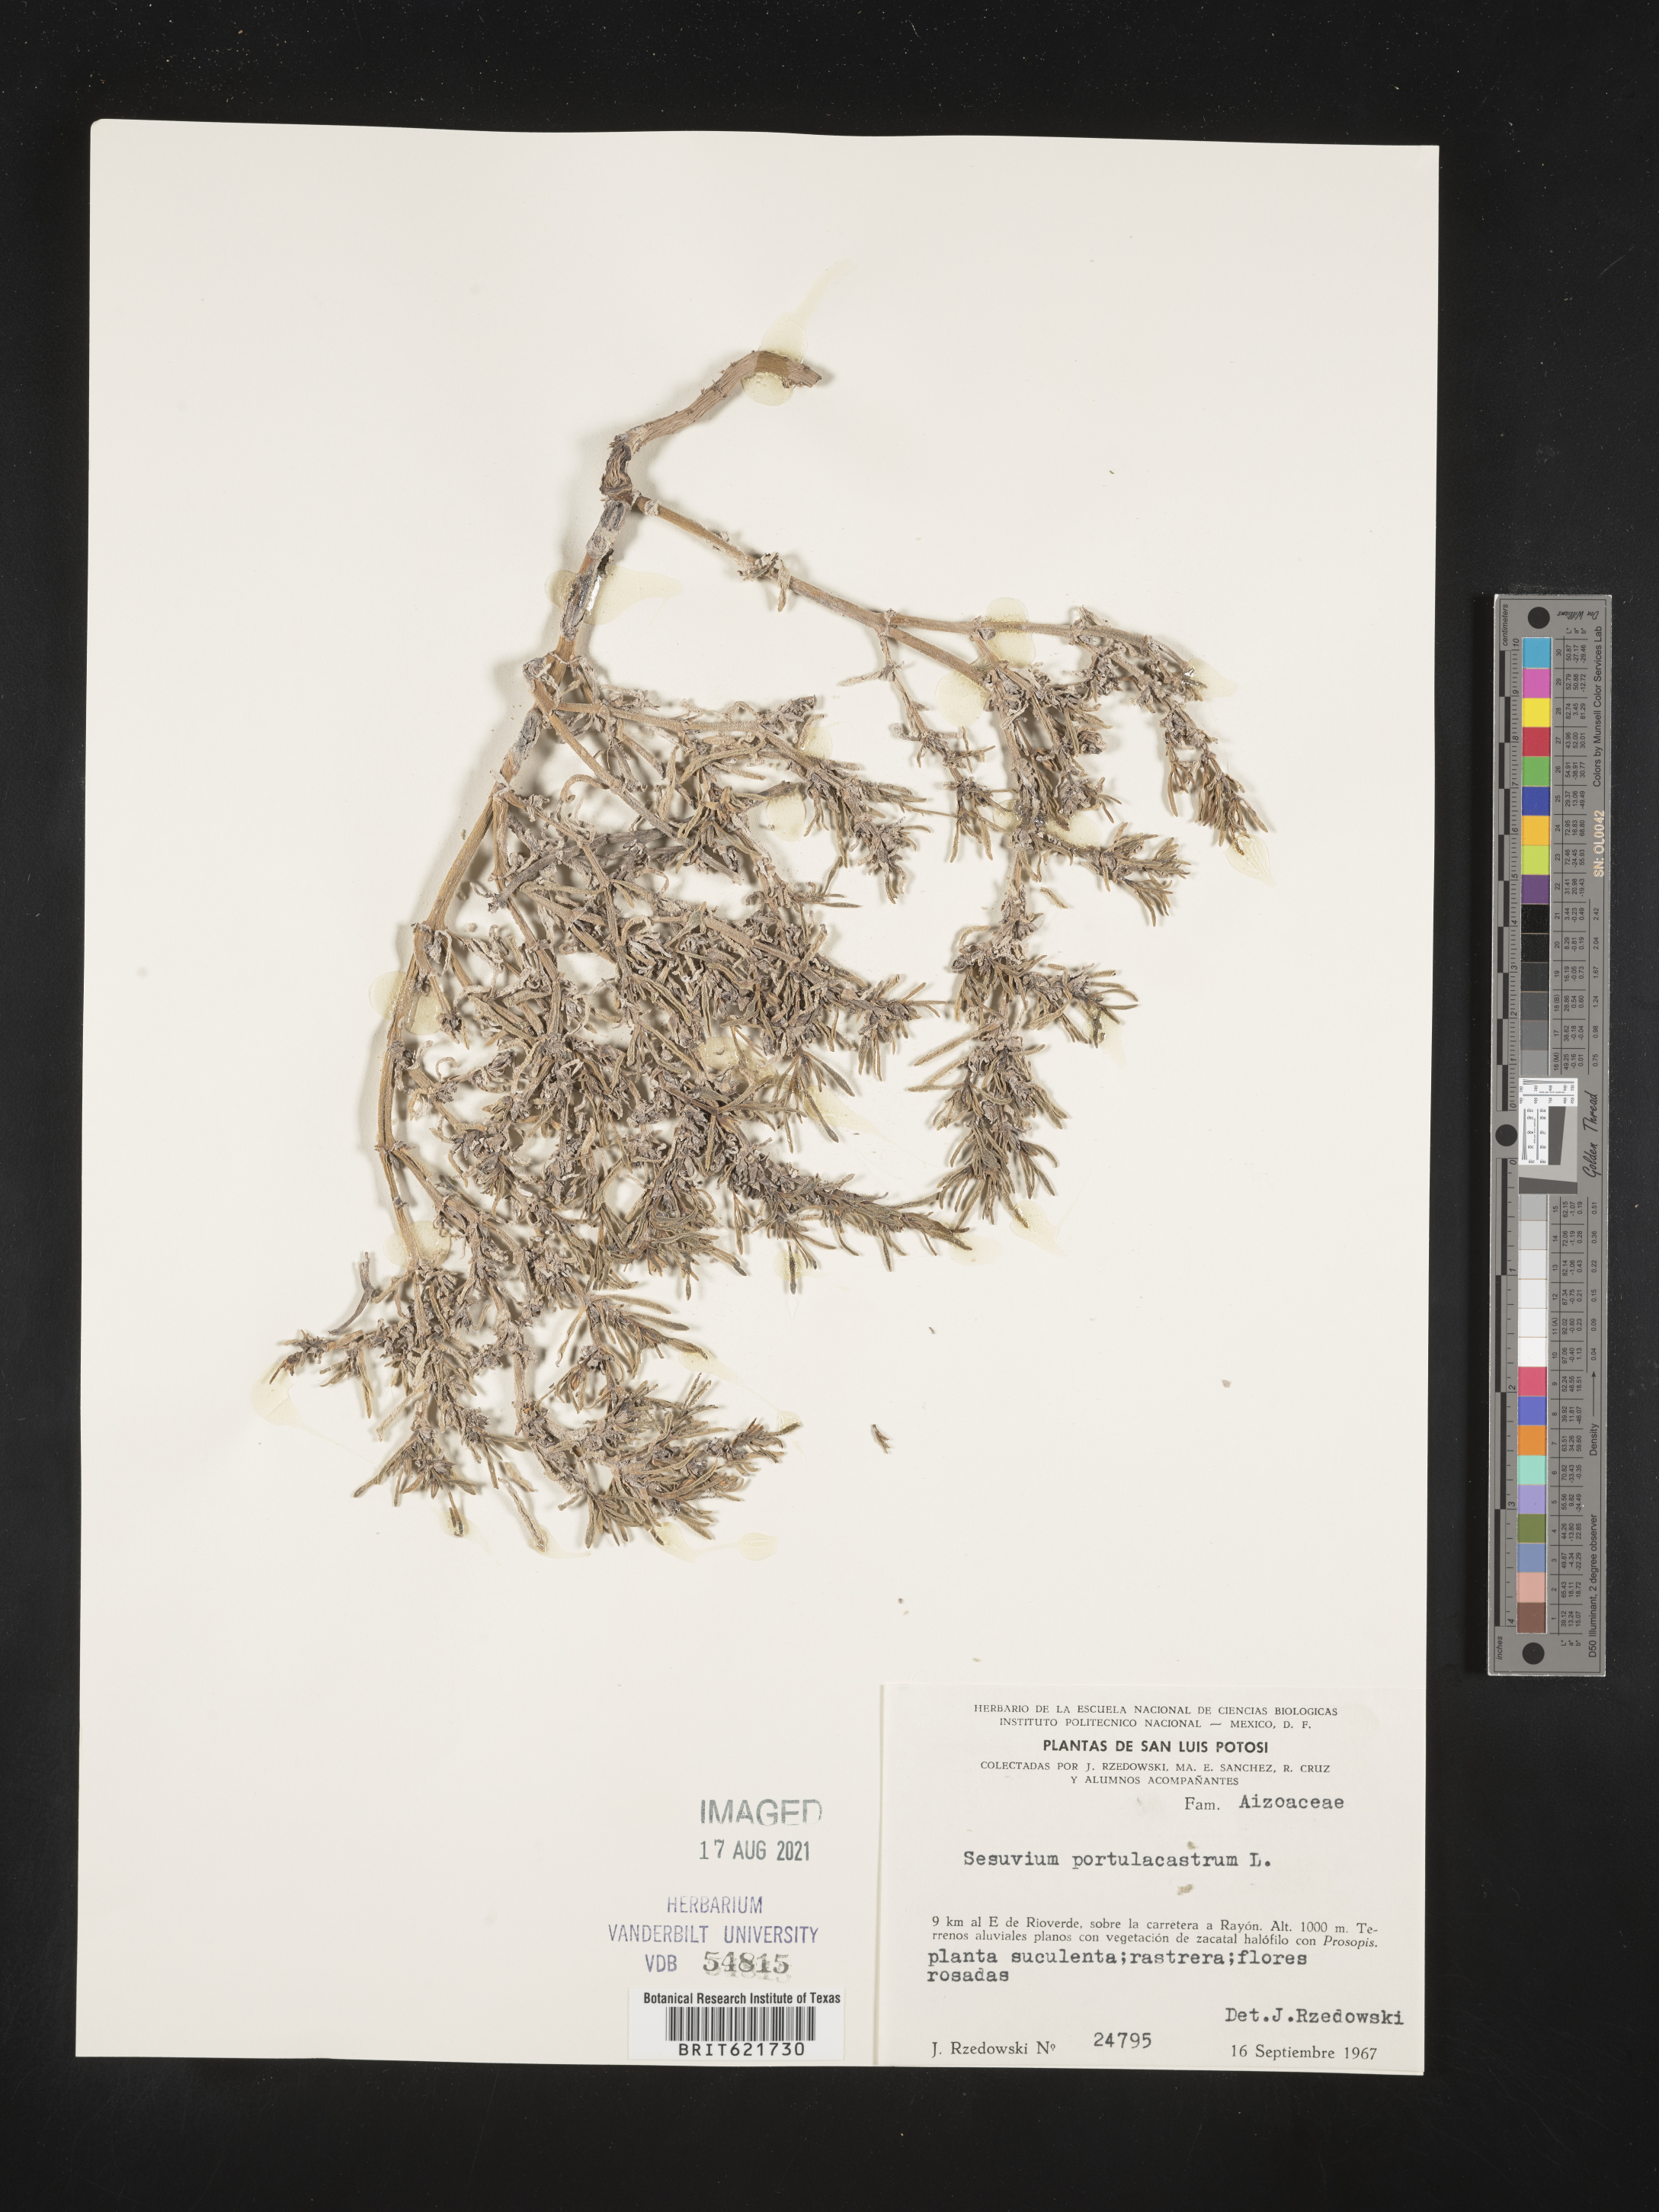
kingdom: Plantae
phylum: Tracheophyta
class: Magnoliopsida
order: Caryophyllales
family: Aizoaceae
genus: Sesuvium
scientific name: Sesuvium
